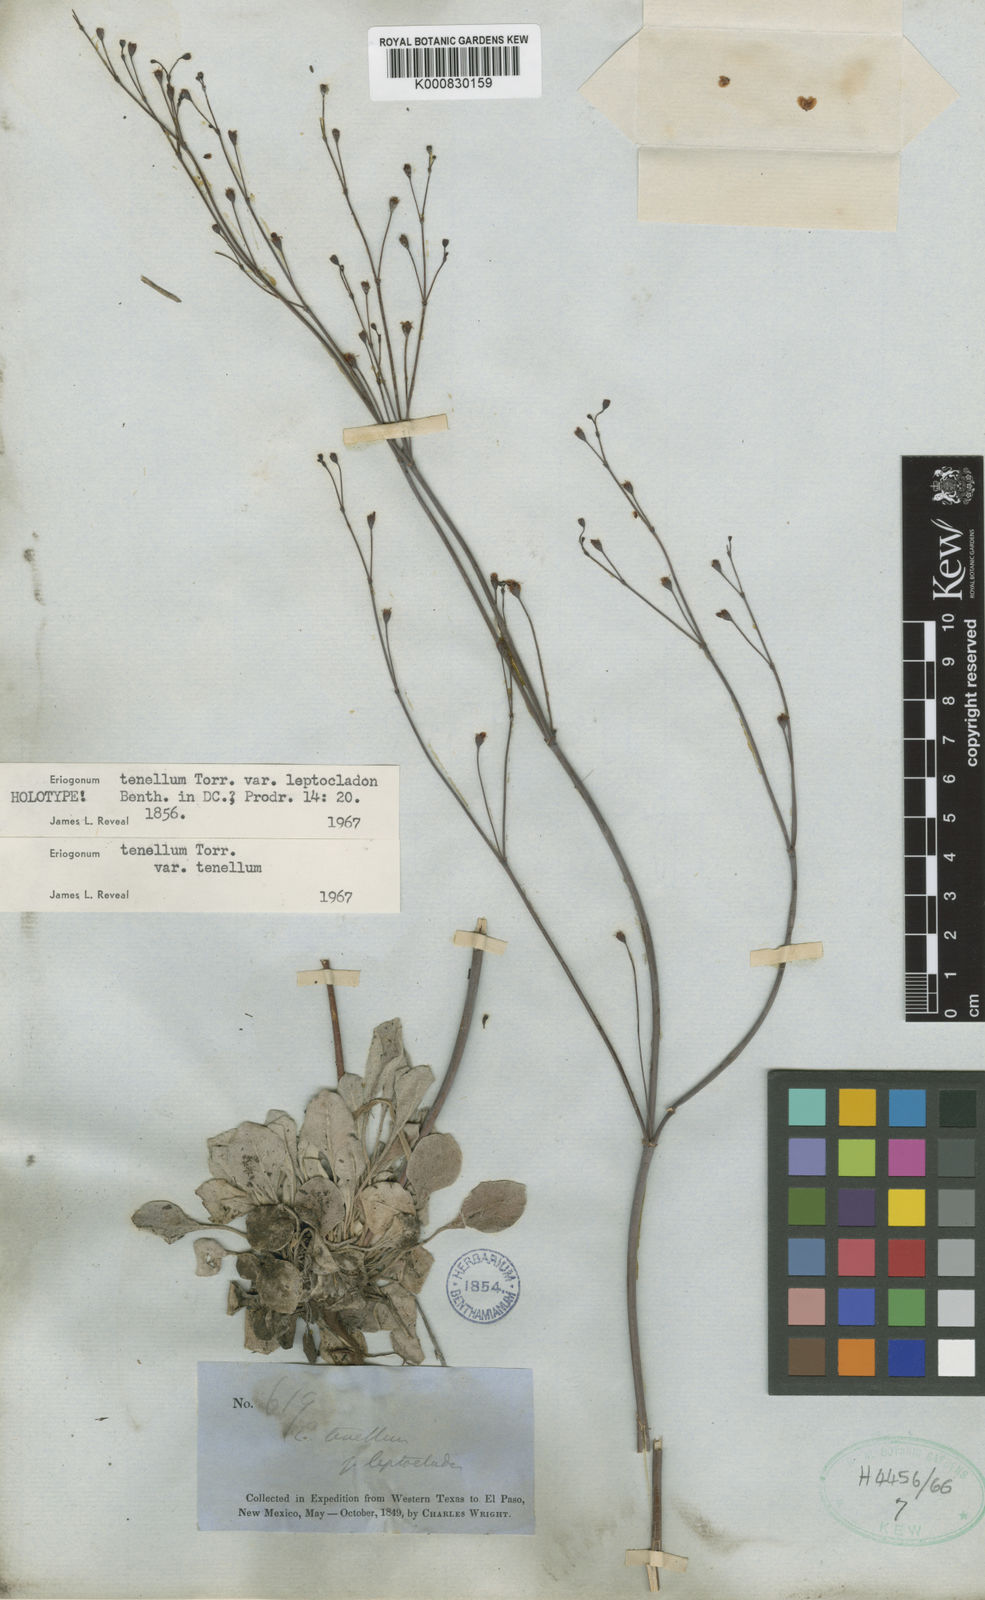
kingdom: Plantae
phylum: Tracheophyta
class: Magnoliopsida
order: Caryophyllales
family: Polygonaceae
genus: Eriogonum
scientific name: Eriogonum tenellum
